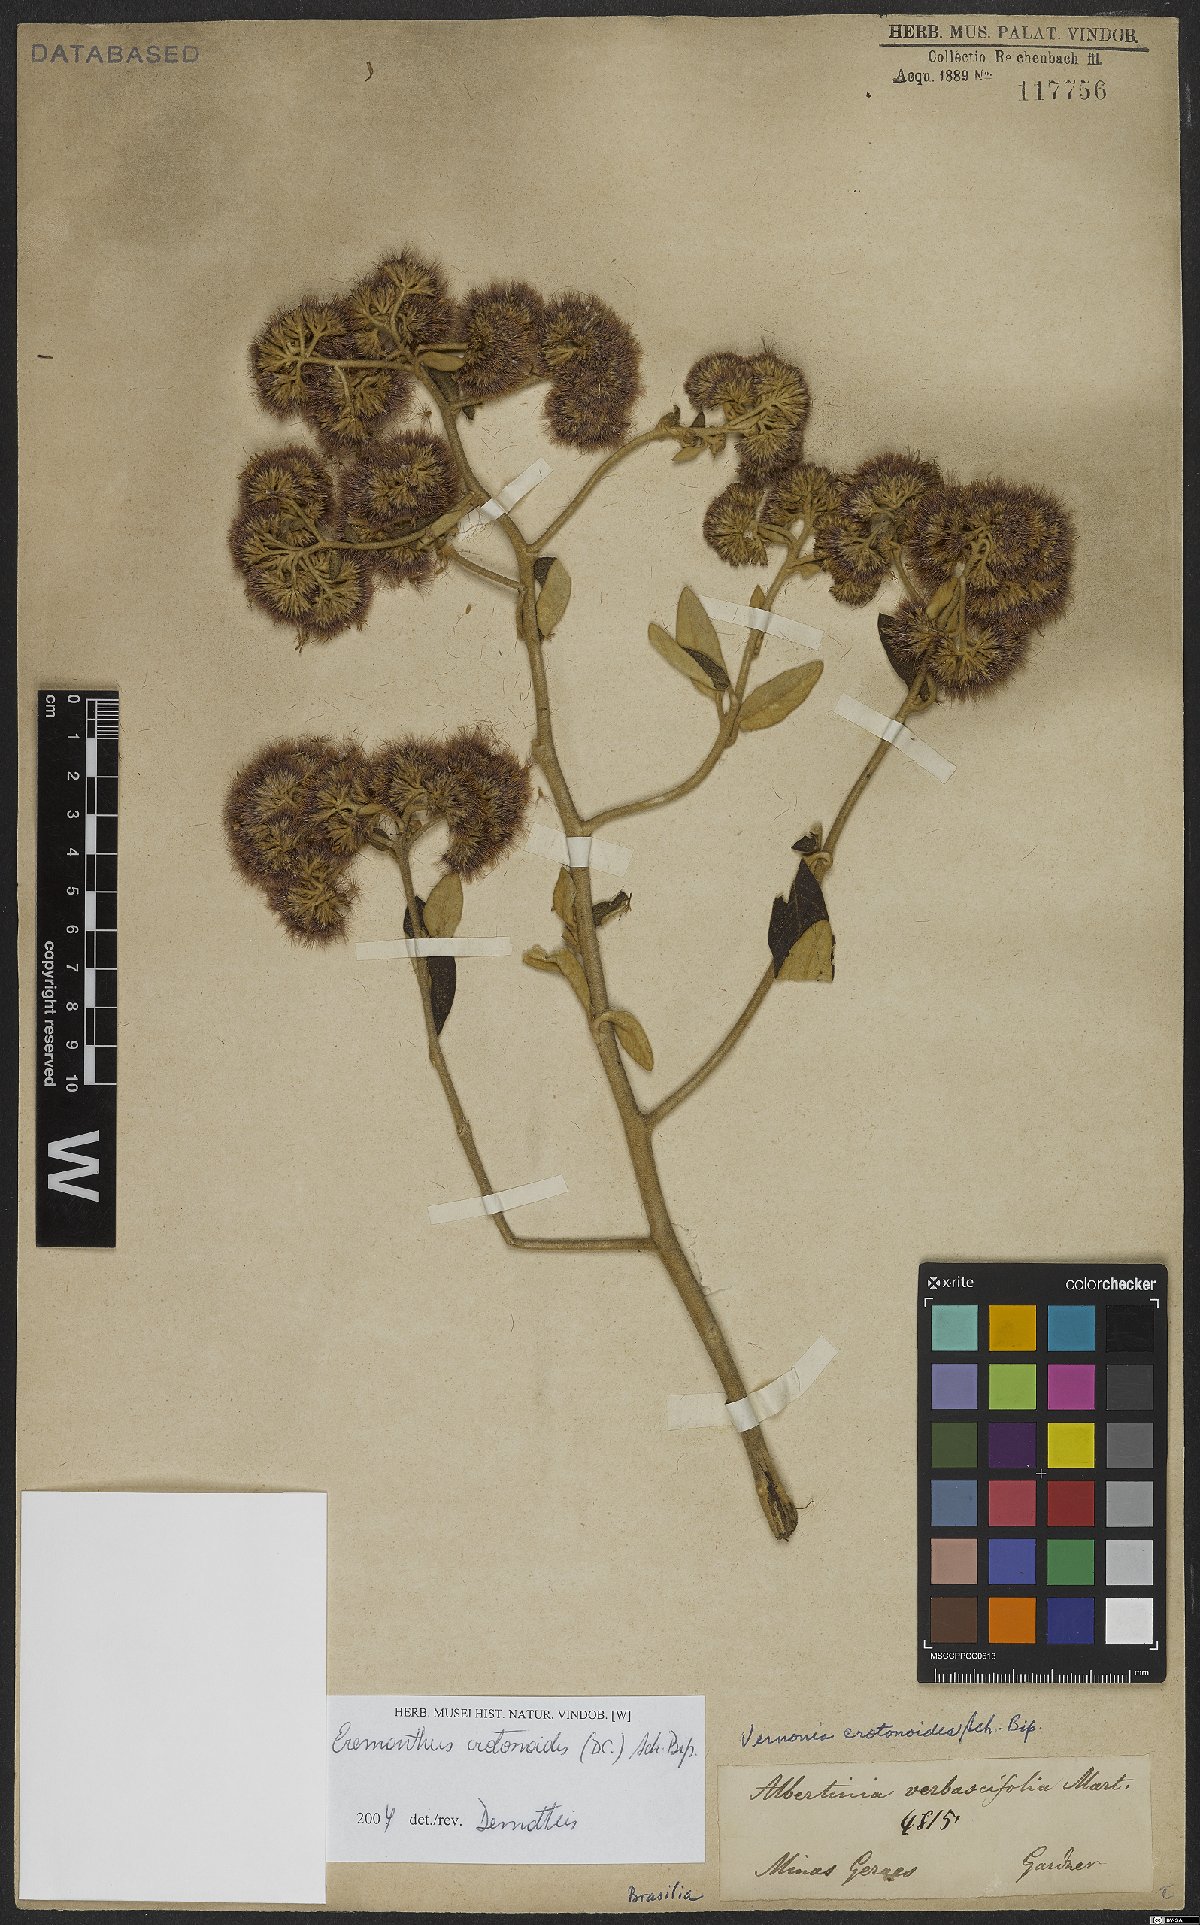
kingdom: Plantae
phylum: Tracheophyta
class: Magnoliopsida
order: Asterales
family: Asteraceae
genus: Eremanthus
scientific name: Eremanthus crotonoides
